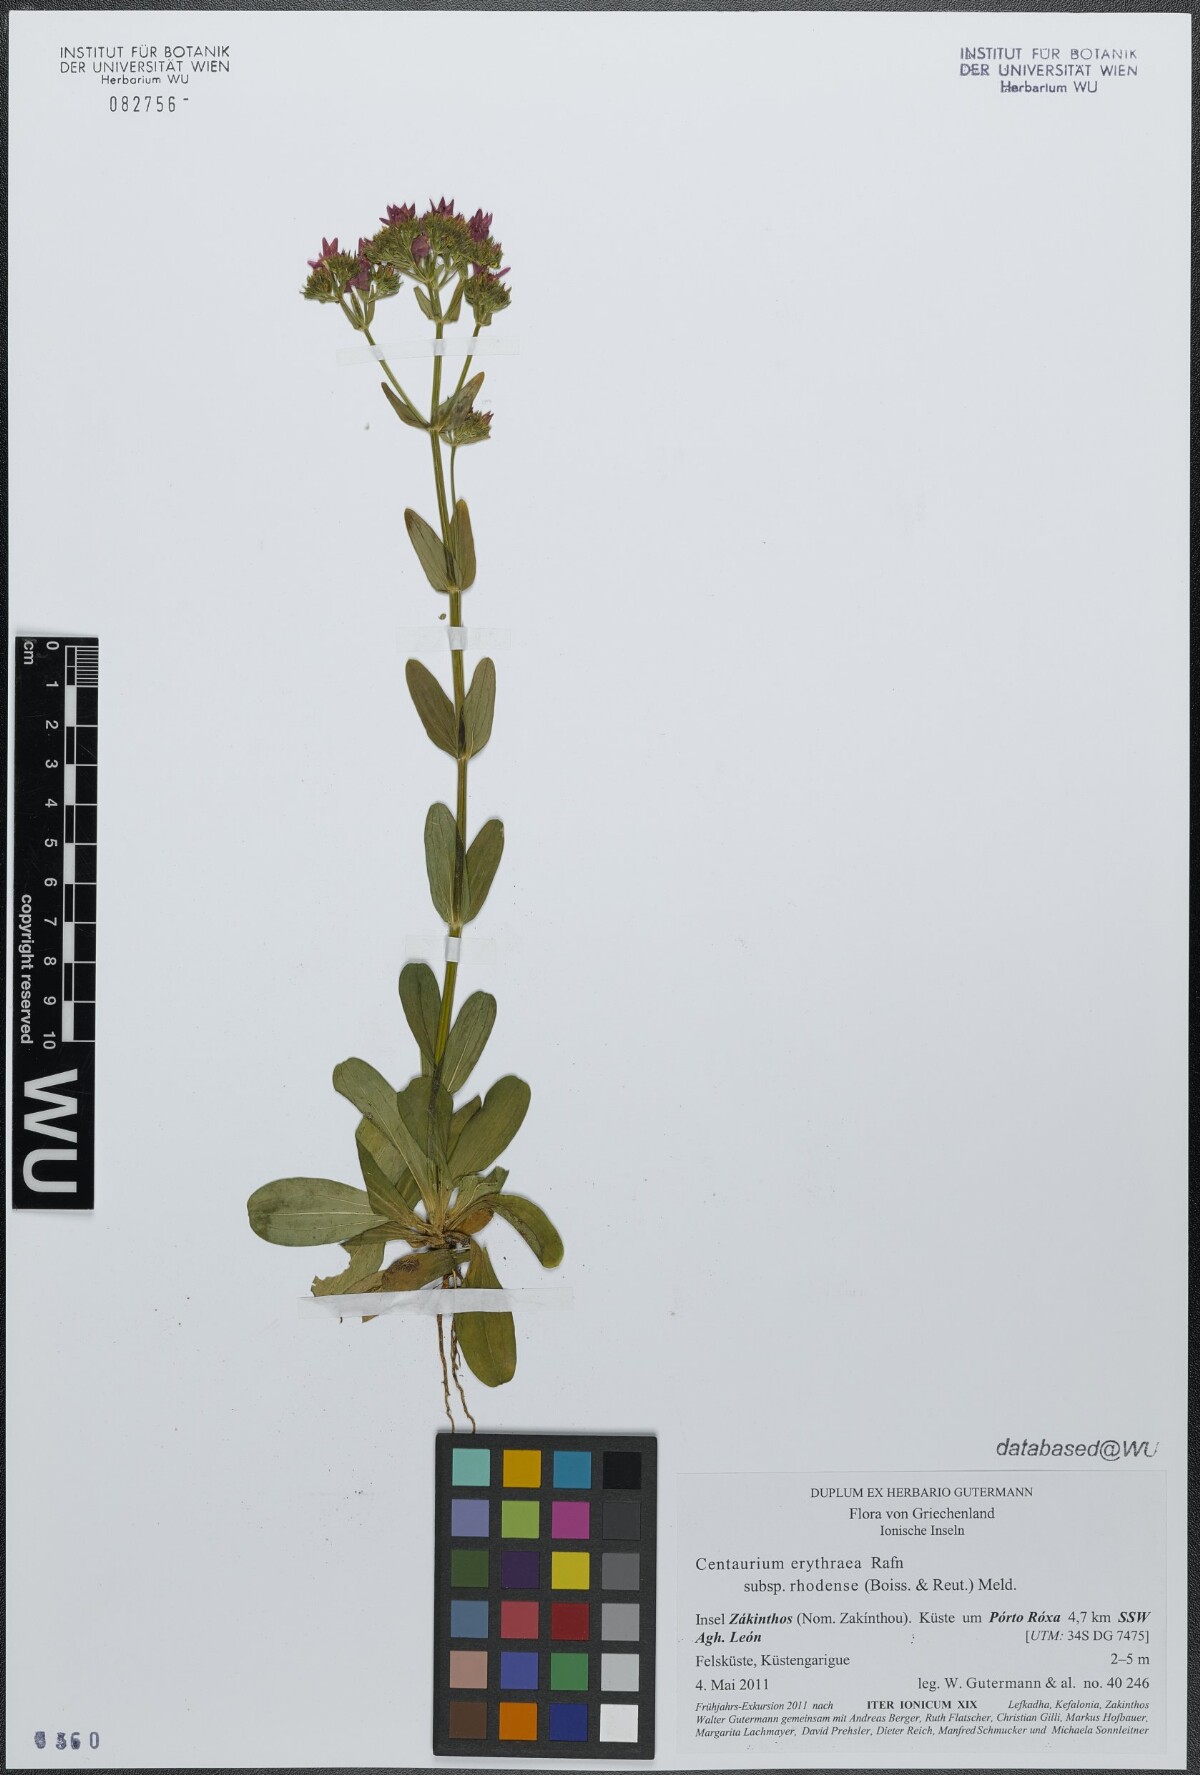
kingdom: Plantae
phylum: Tracheophyta
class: Magnoliopsida
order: Gentianales
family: Gentianaceae
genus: Centaurium
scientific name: Centaurium erythraea
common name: Common centaury
